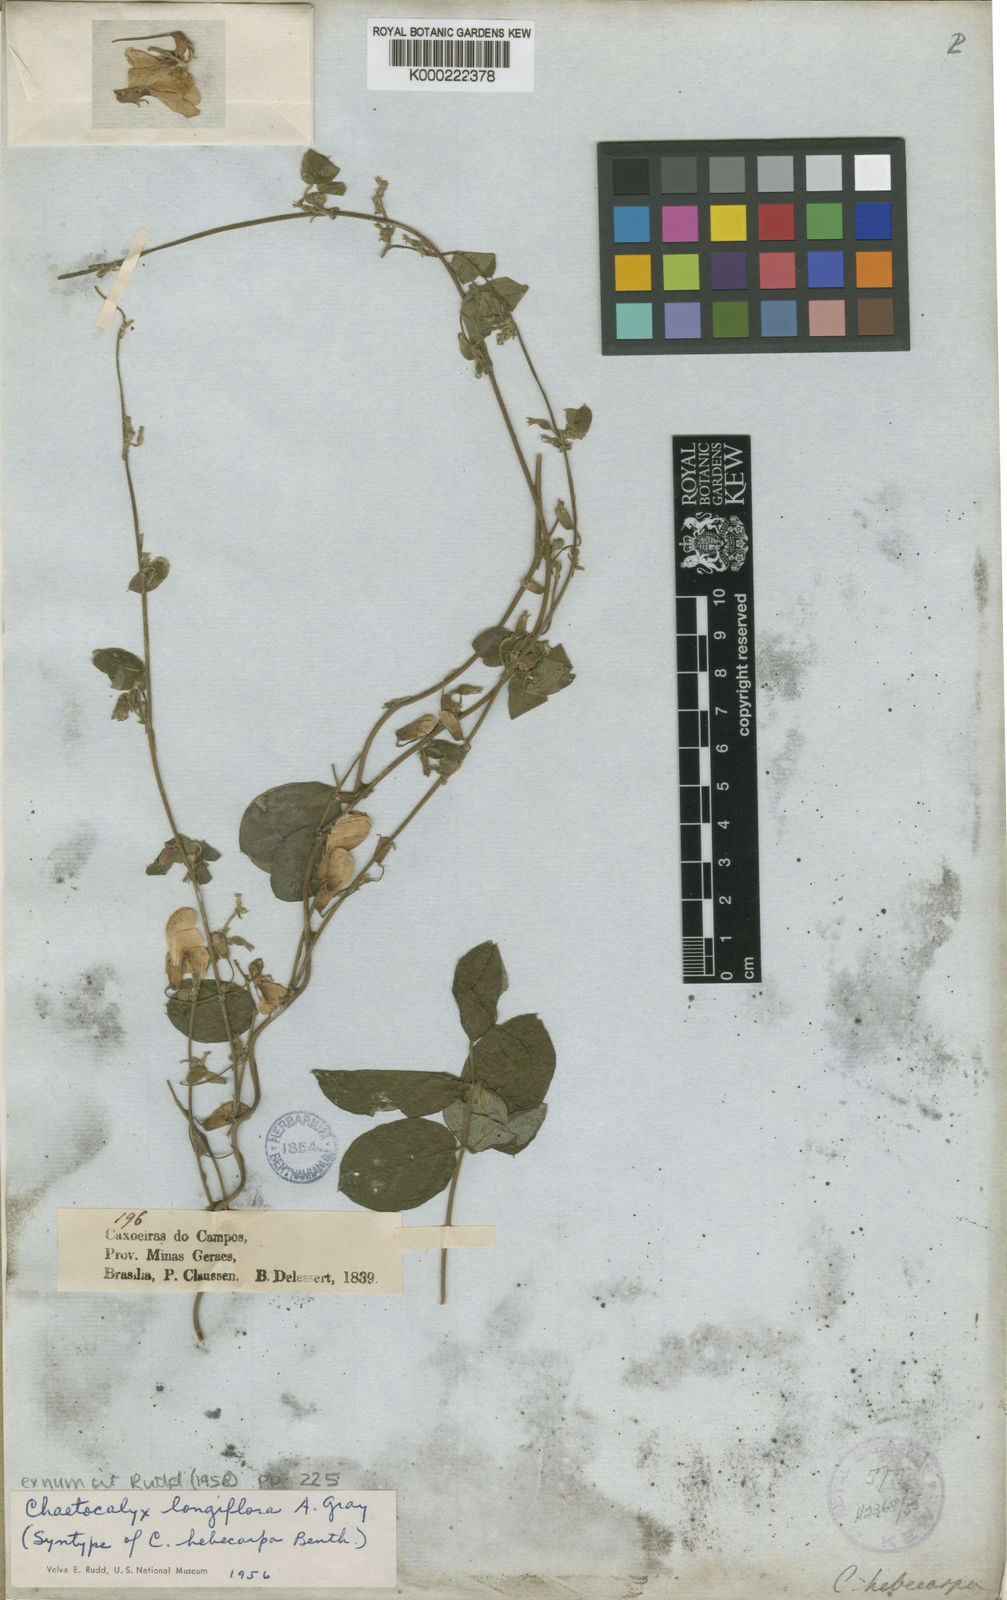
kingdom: Plantae
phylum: Tracheophyta
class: Magnoliopsida
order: Fabales
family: Fabaceae
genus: Nissolia
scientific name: Nissolia longiflora
